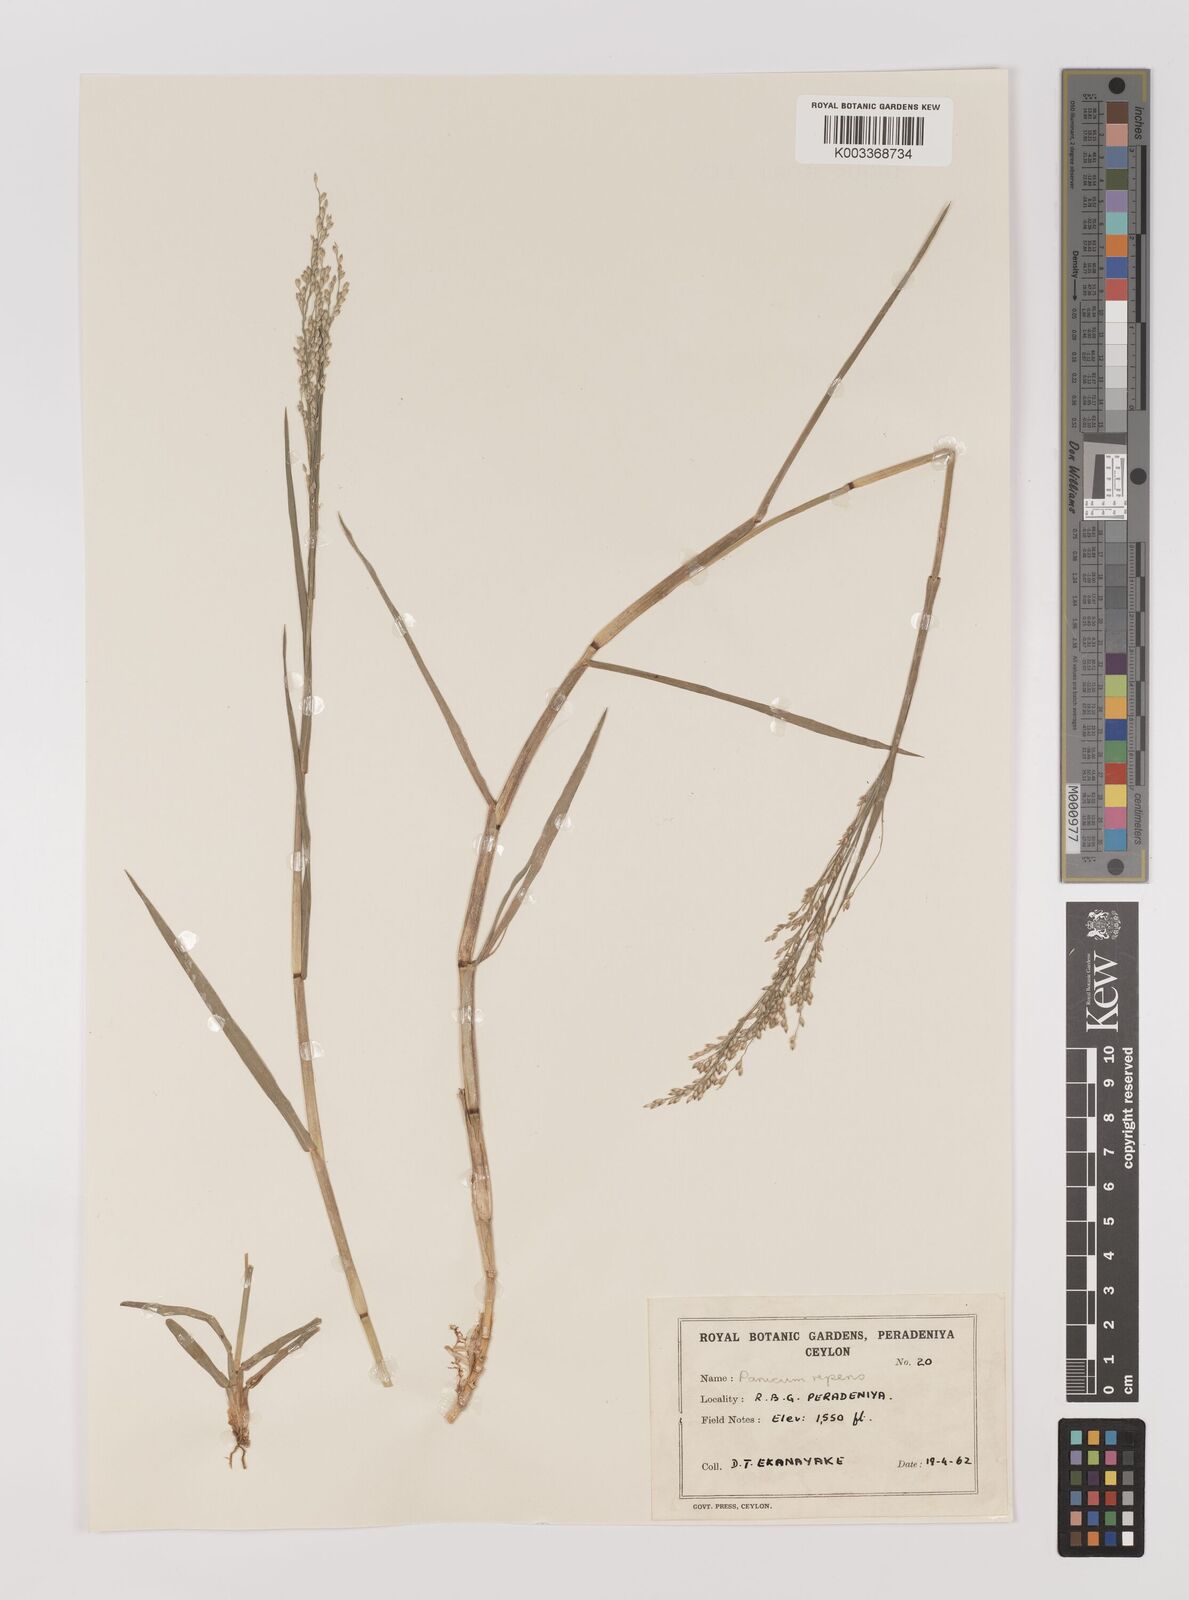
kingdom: Plantae
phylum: Tracheophyta
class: Liliopsida
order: Poales
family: Poaceae
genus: Panicum
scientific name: Panicum repens
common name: Torpedo grass
